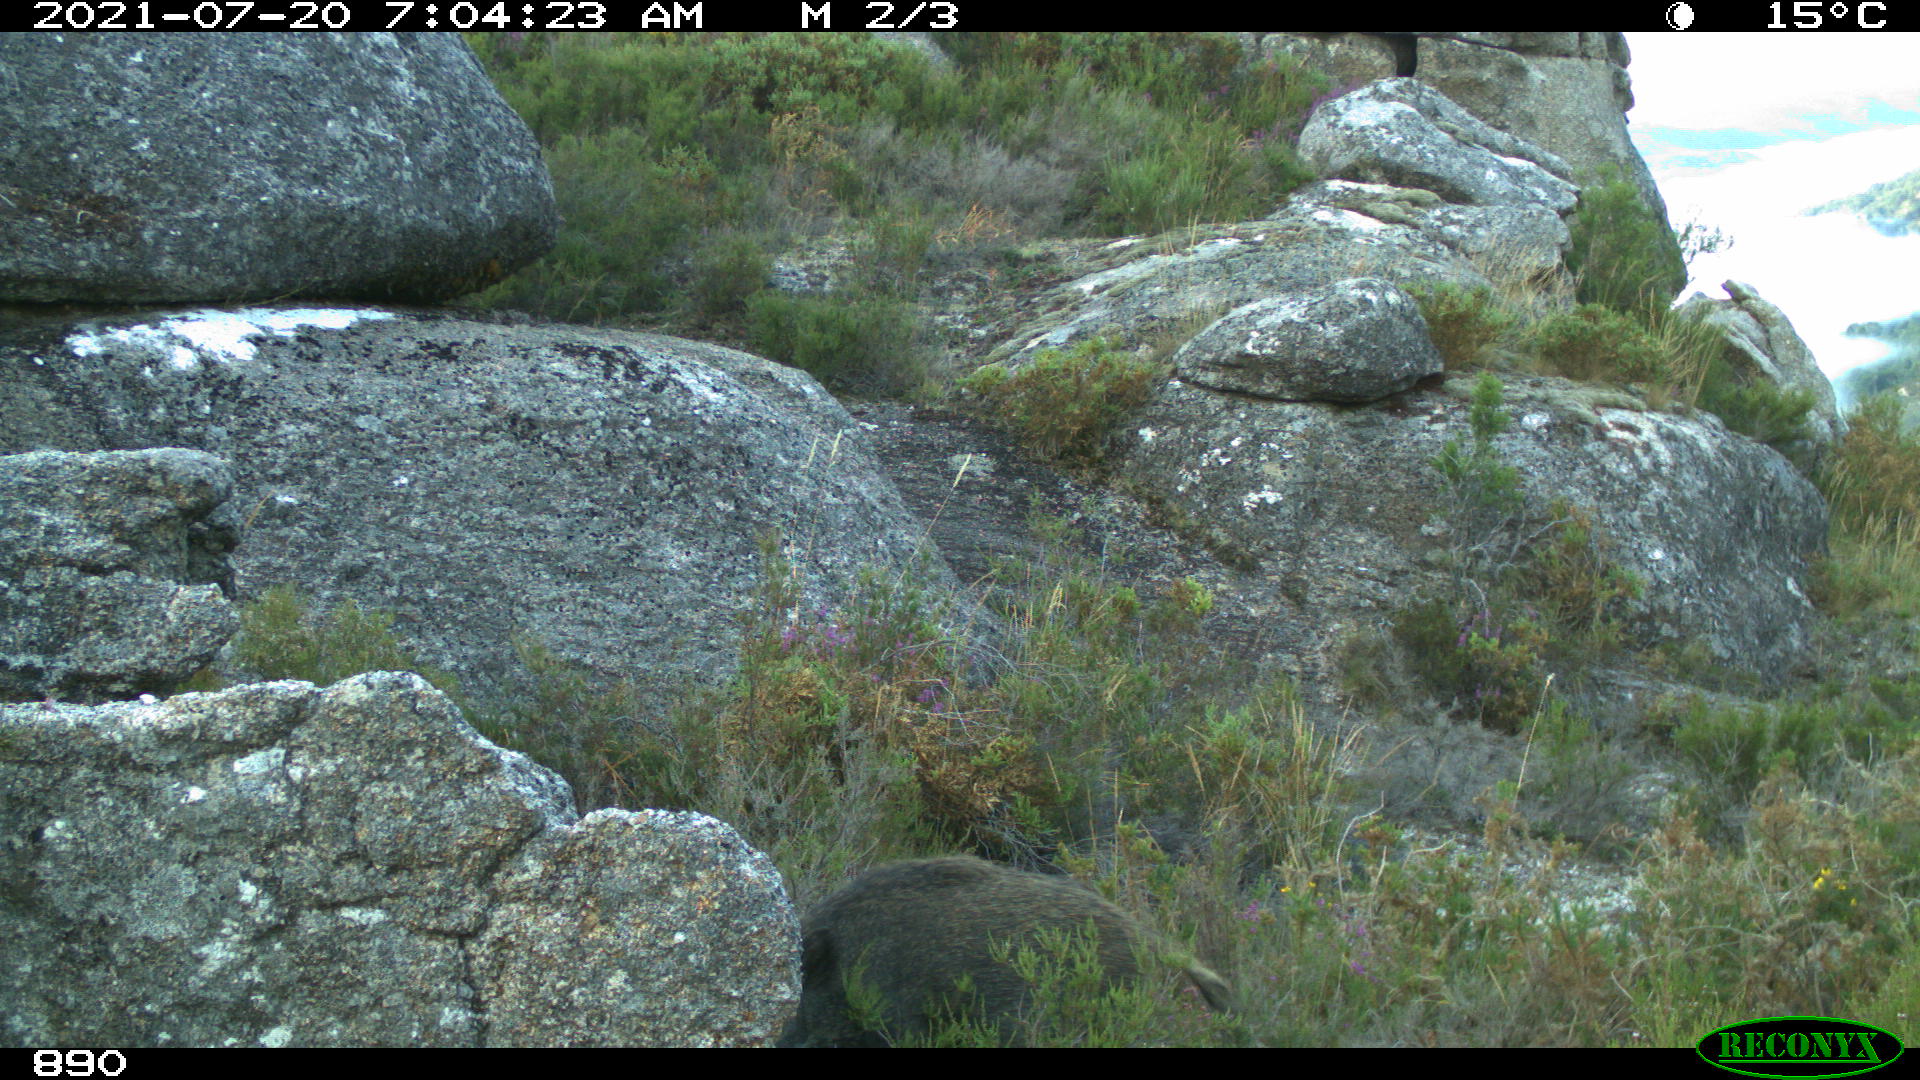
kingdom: Animalia
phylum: Chordata
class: Mammalia
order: Artiodactyla
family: Suidae
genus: Sus
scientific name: Sus scrofa
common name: Wild boar
